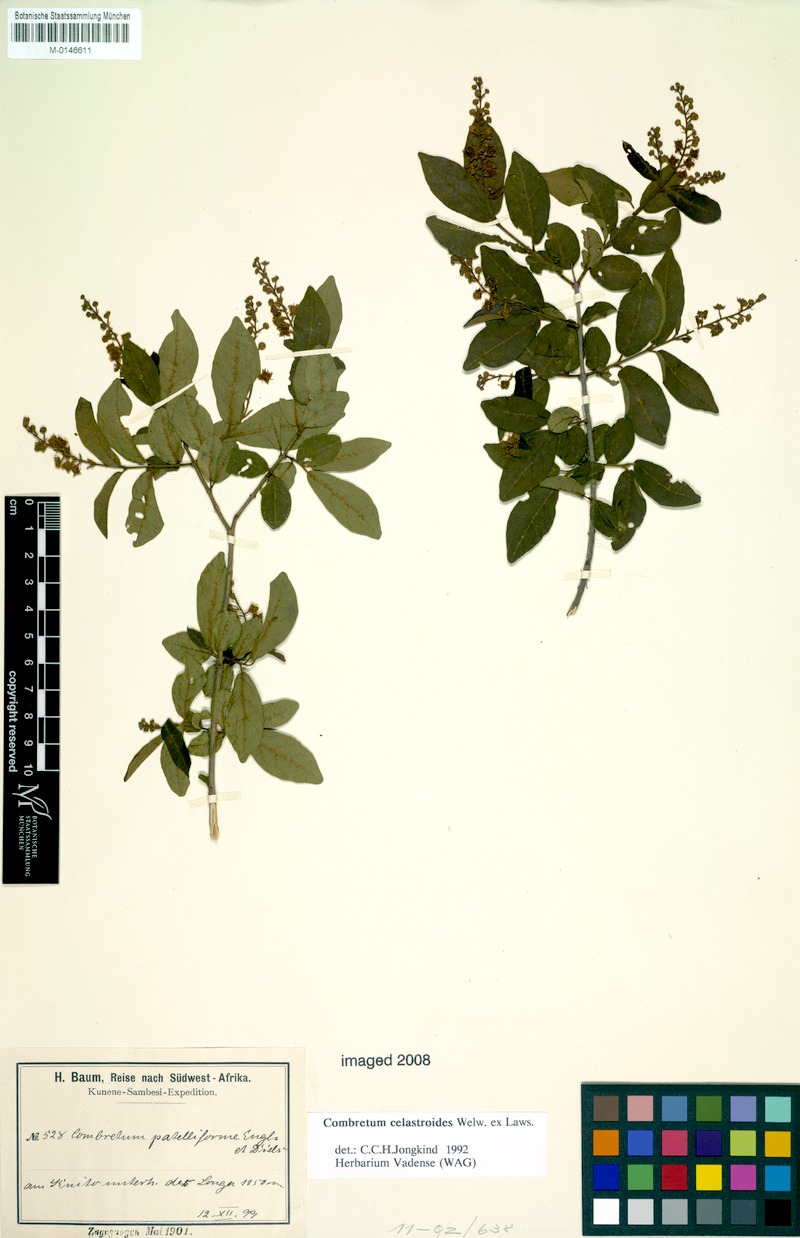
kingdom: Plantae
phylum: Tracheophyta
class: Magnoliopsida
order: Myrtales
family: Combretaceae
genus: Combretum
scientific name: Combretum celastroides
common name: Jesse-bush combretum
